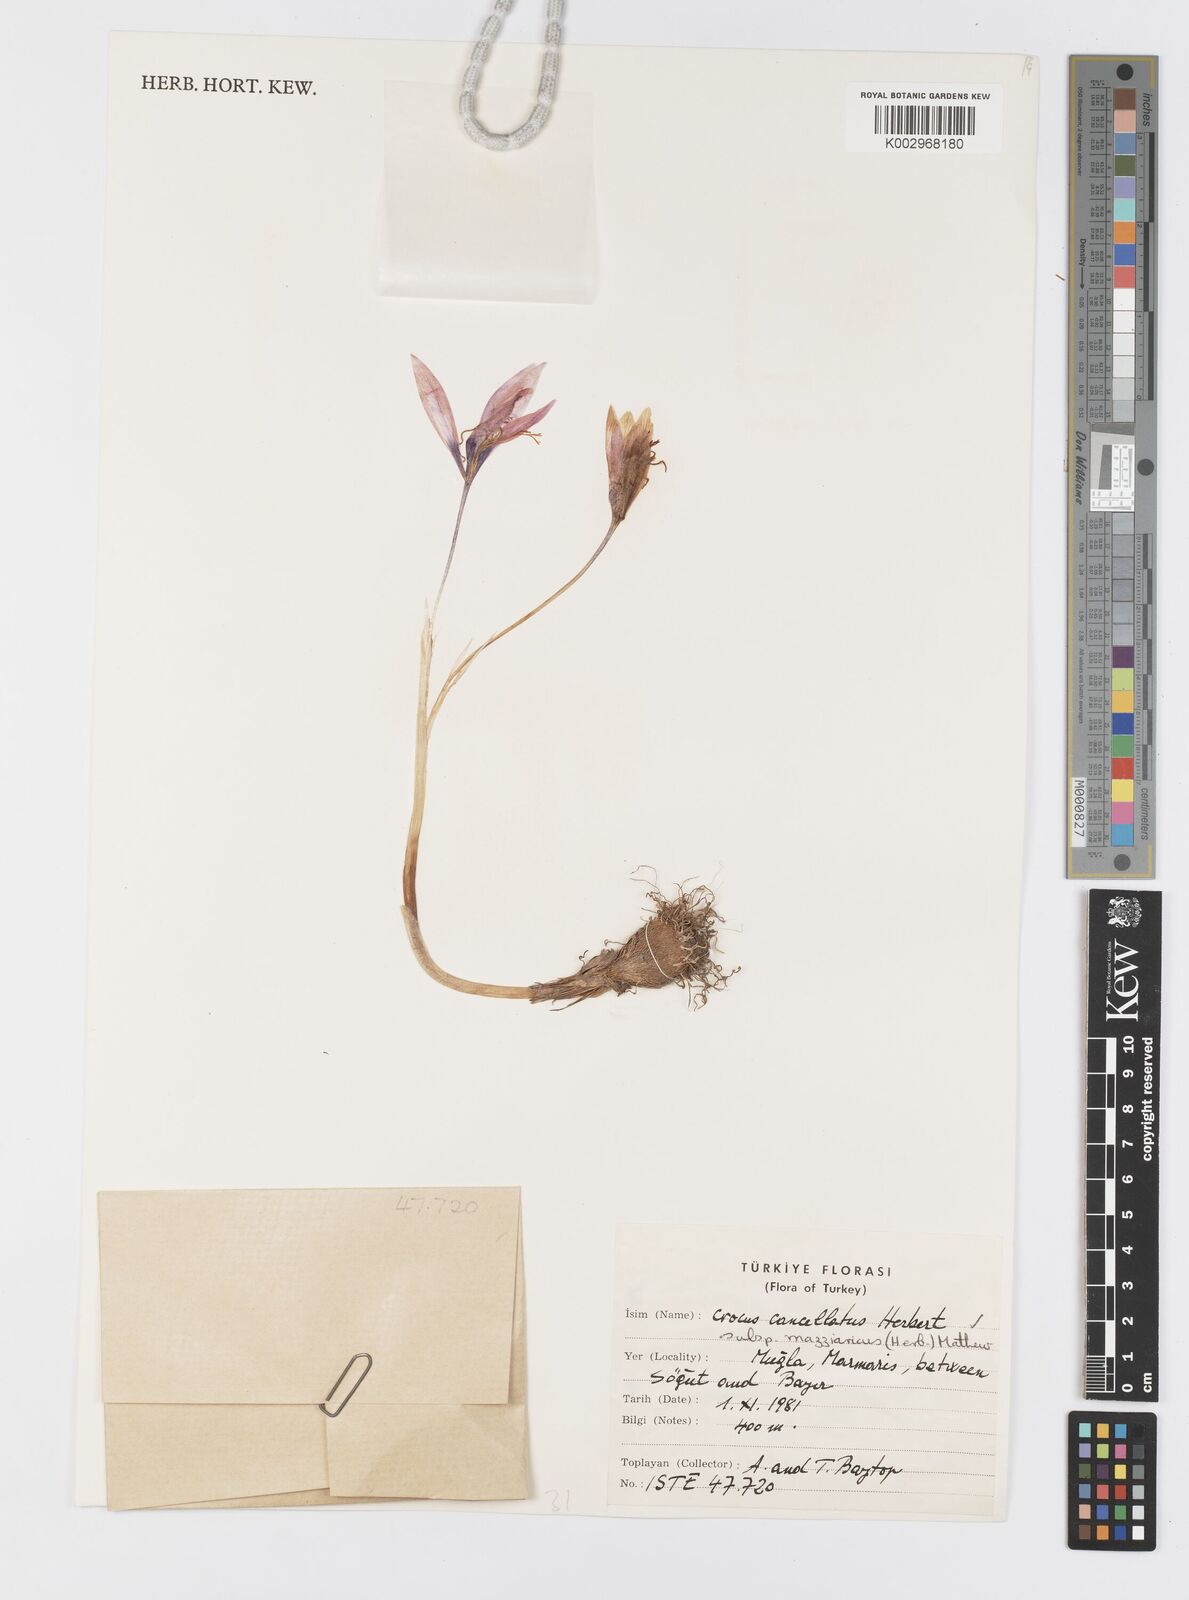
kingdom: Plantae
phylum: Tracheophyta
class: Liliopsida
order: Asparagales
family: Iridaceae
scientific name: Iridaceae
